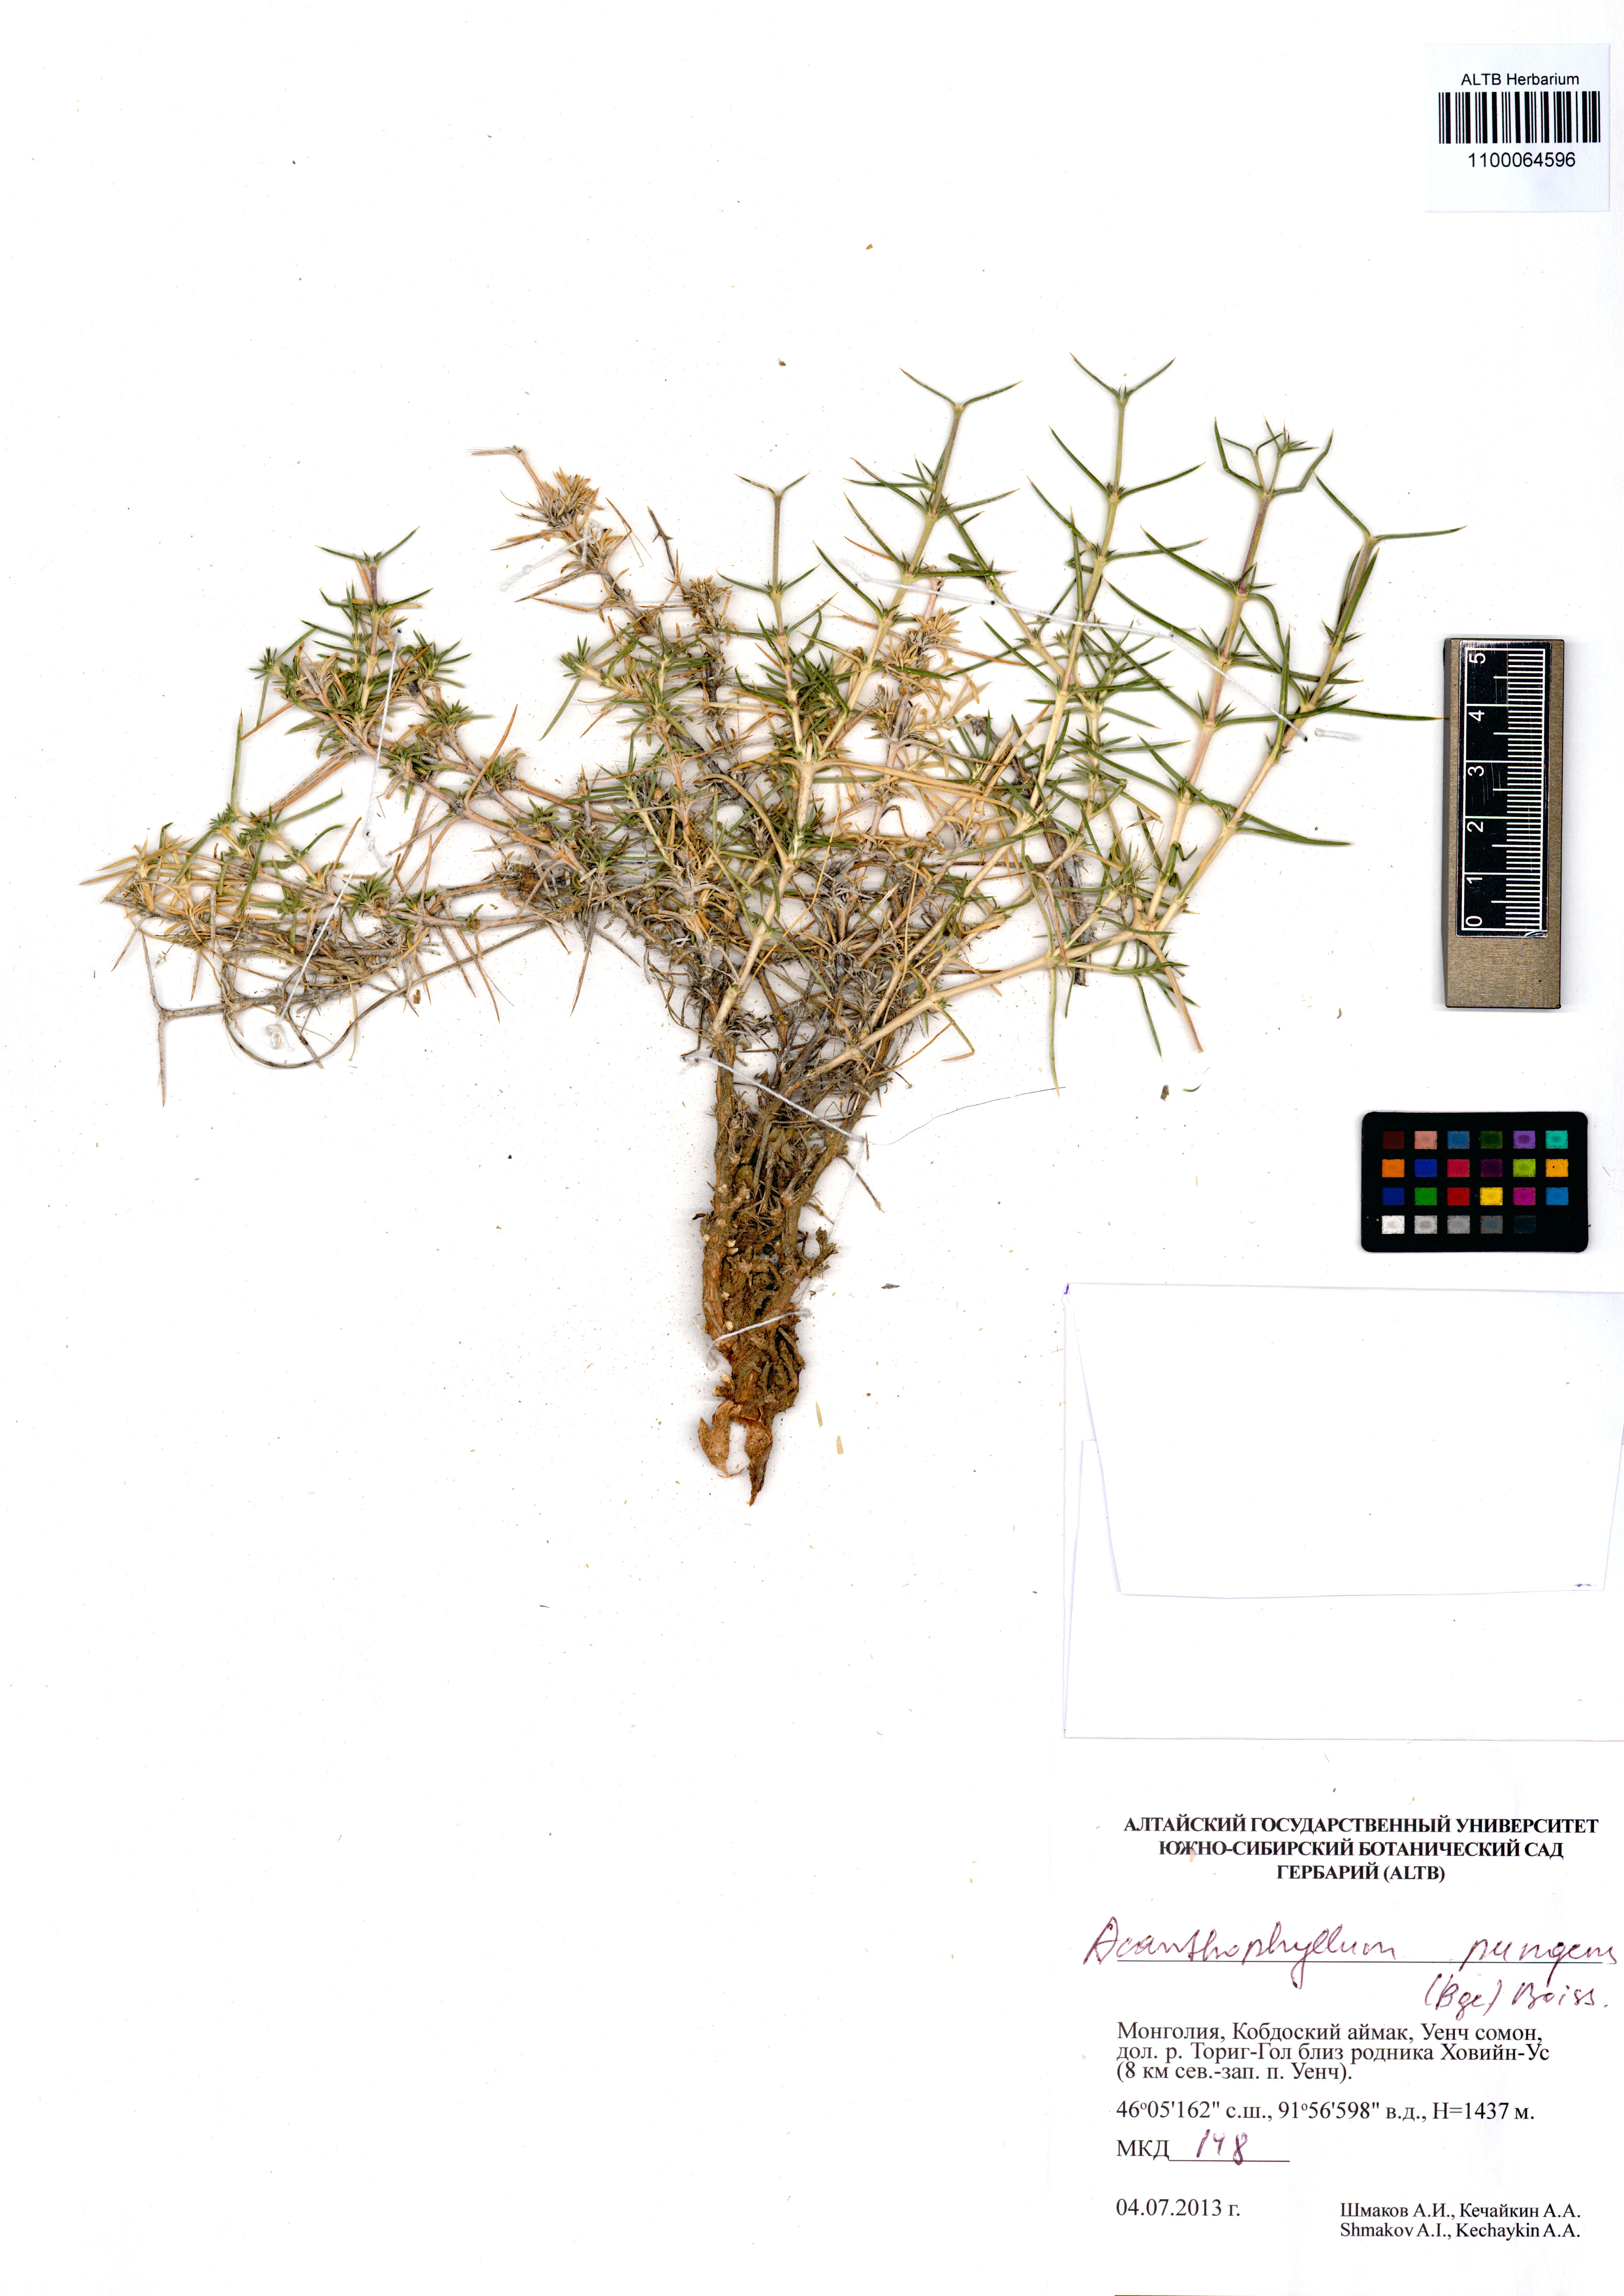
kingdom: Plantae
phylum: Tracheophyta
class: Magnoliopsida
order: Caryophyllales
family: Caryophyllaceae
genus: Acanthophyllum
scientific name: Acanthophyllum pungens
